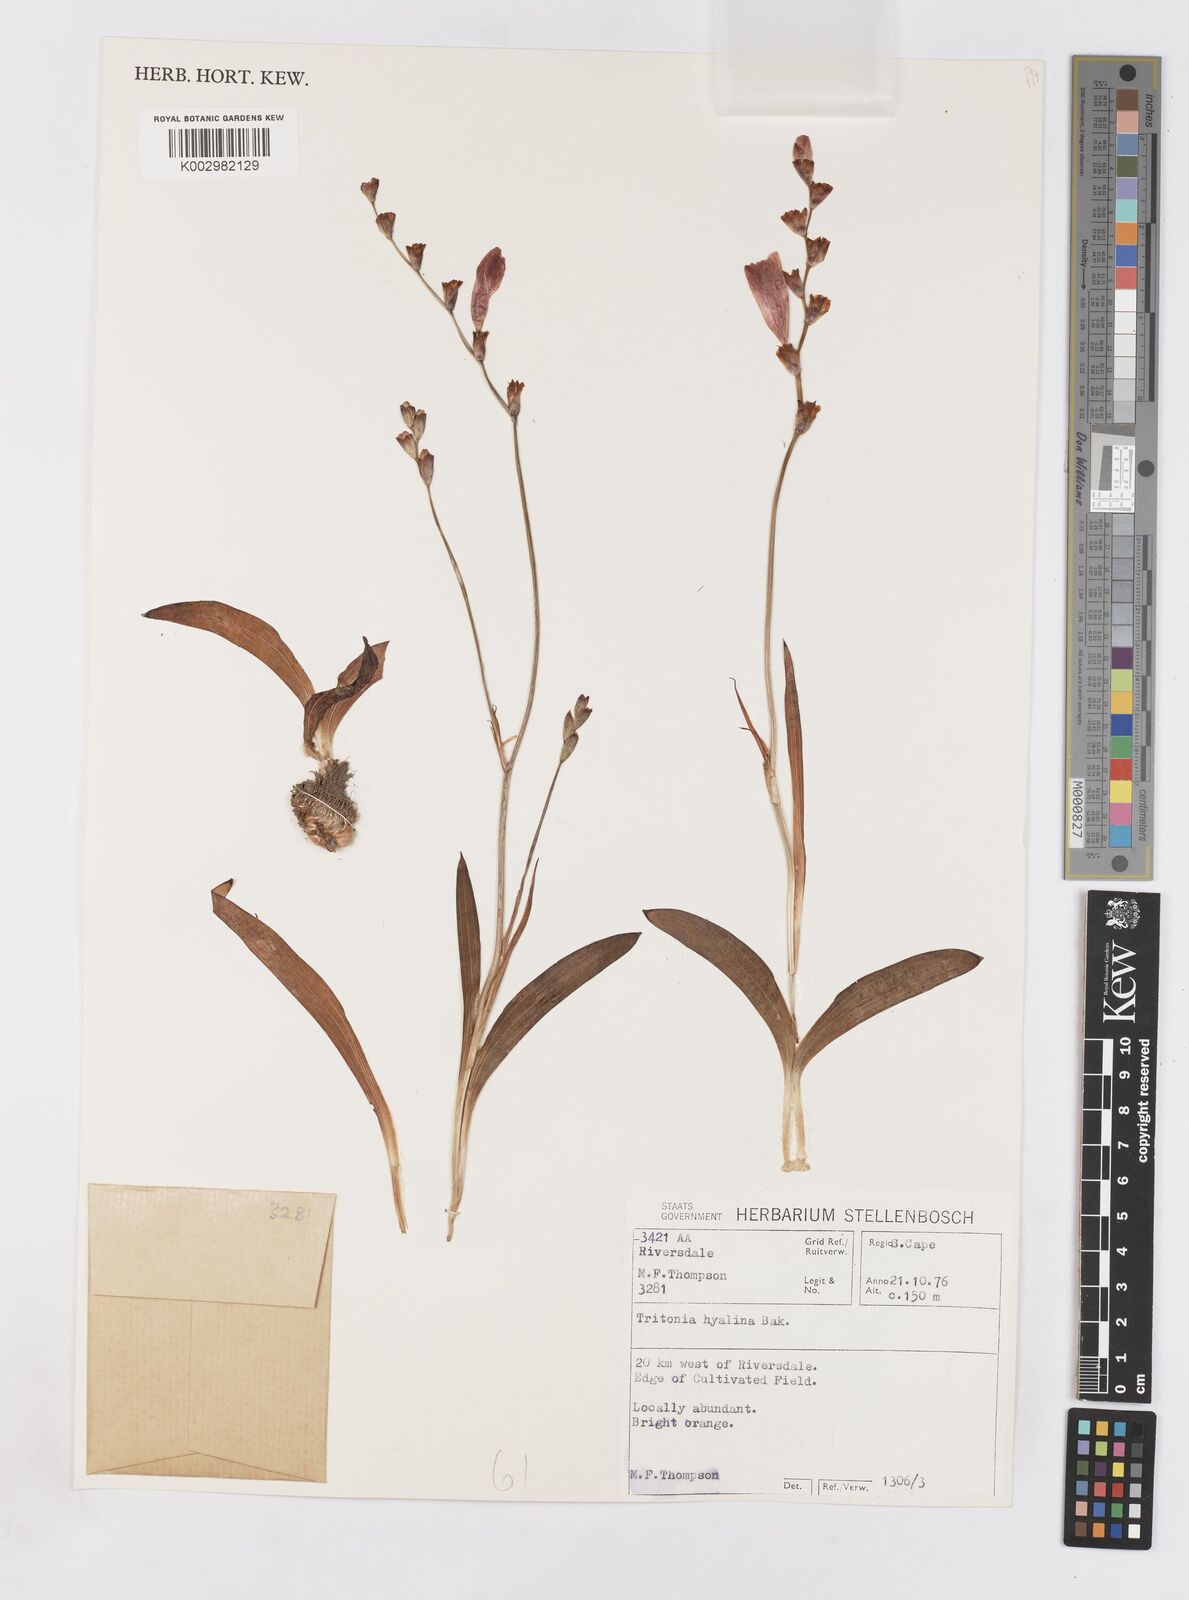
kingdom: Plantae
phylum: Tracheophyta
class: Liliopsida
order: Asparagales
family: Iridaceae
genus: Tritonia
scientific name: Tritonia crocata
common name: Flame-freesia
